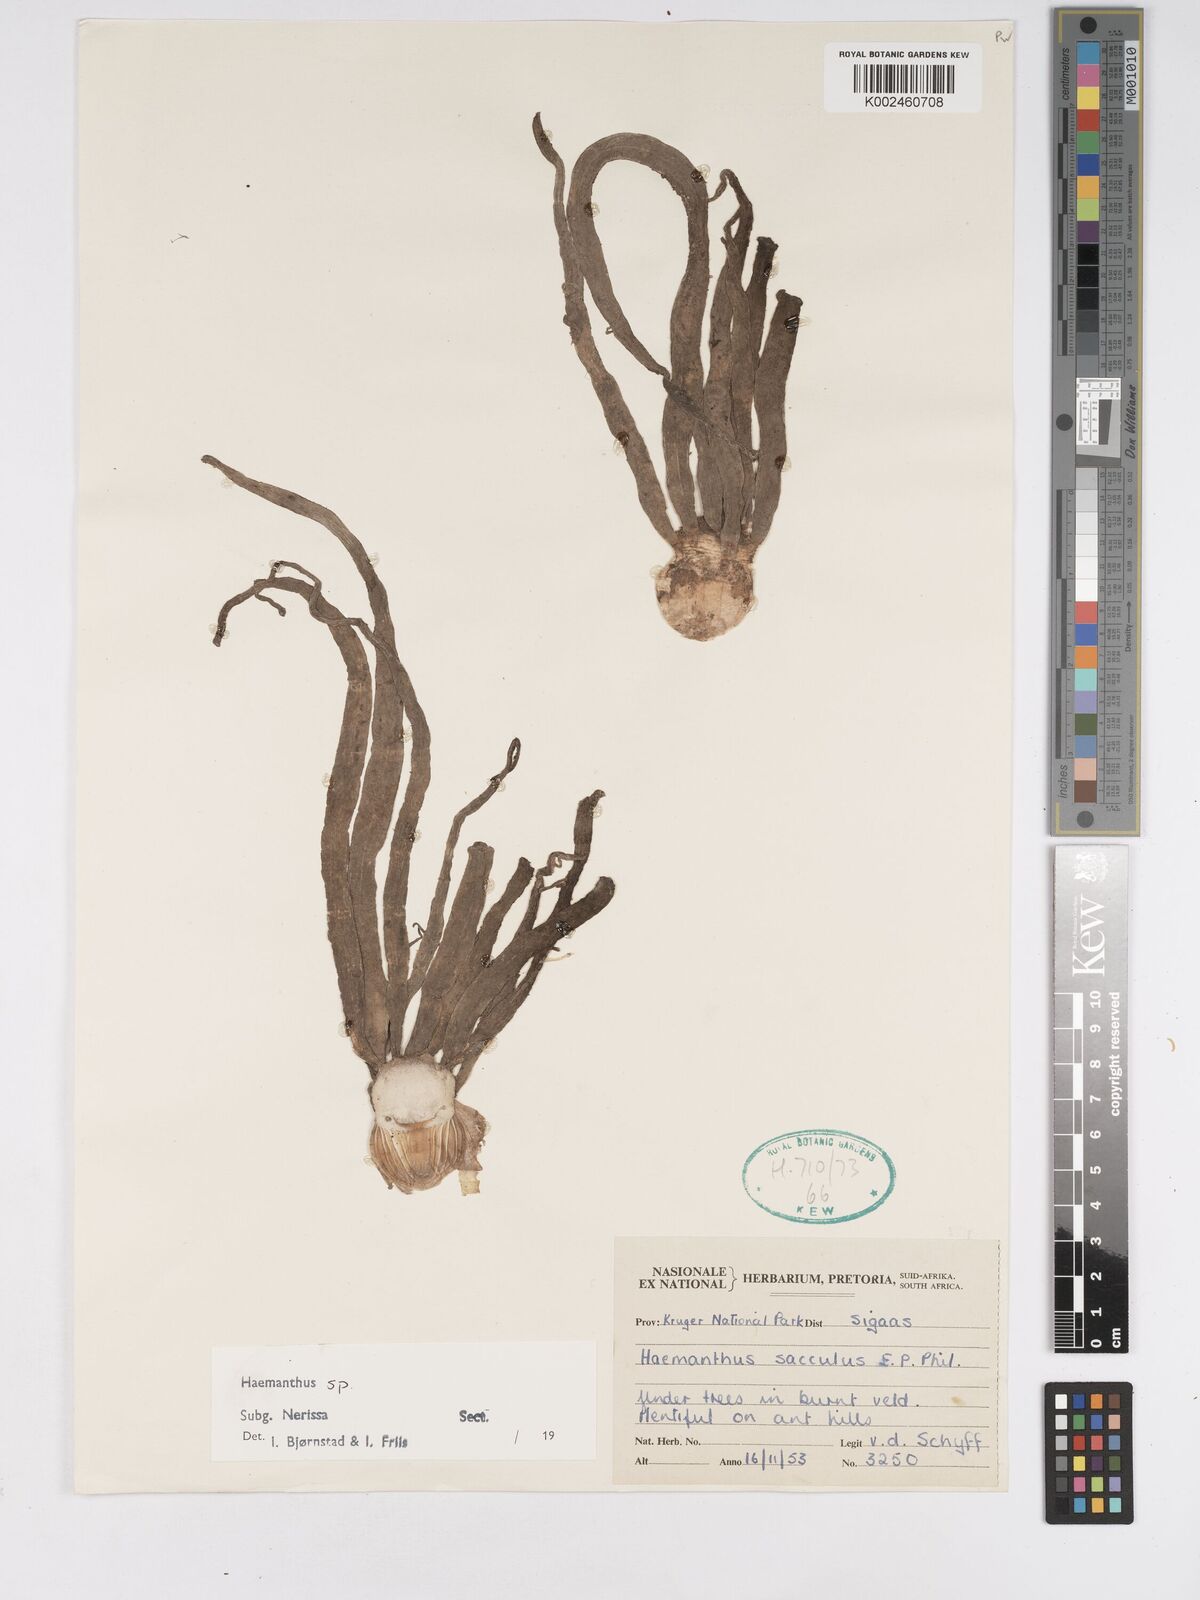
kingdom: Plantae
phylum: Tracheophyta
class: Liliopsida
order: Asparagales
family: Amaryllidaceae
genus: Scadoxus
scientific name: Scadoxus
